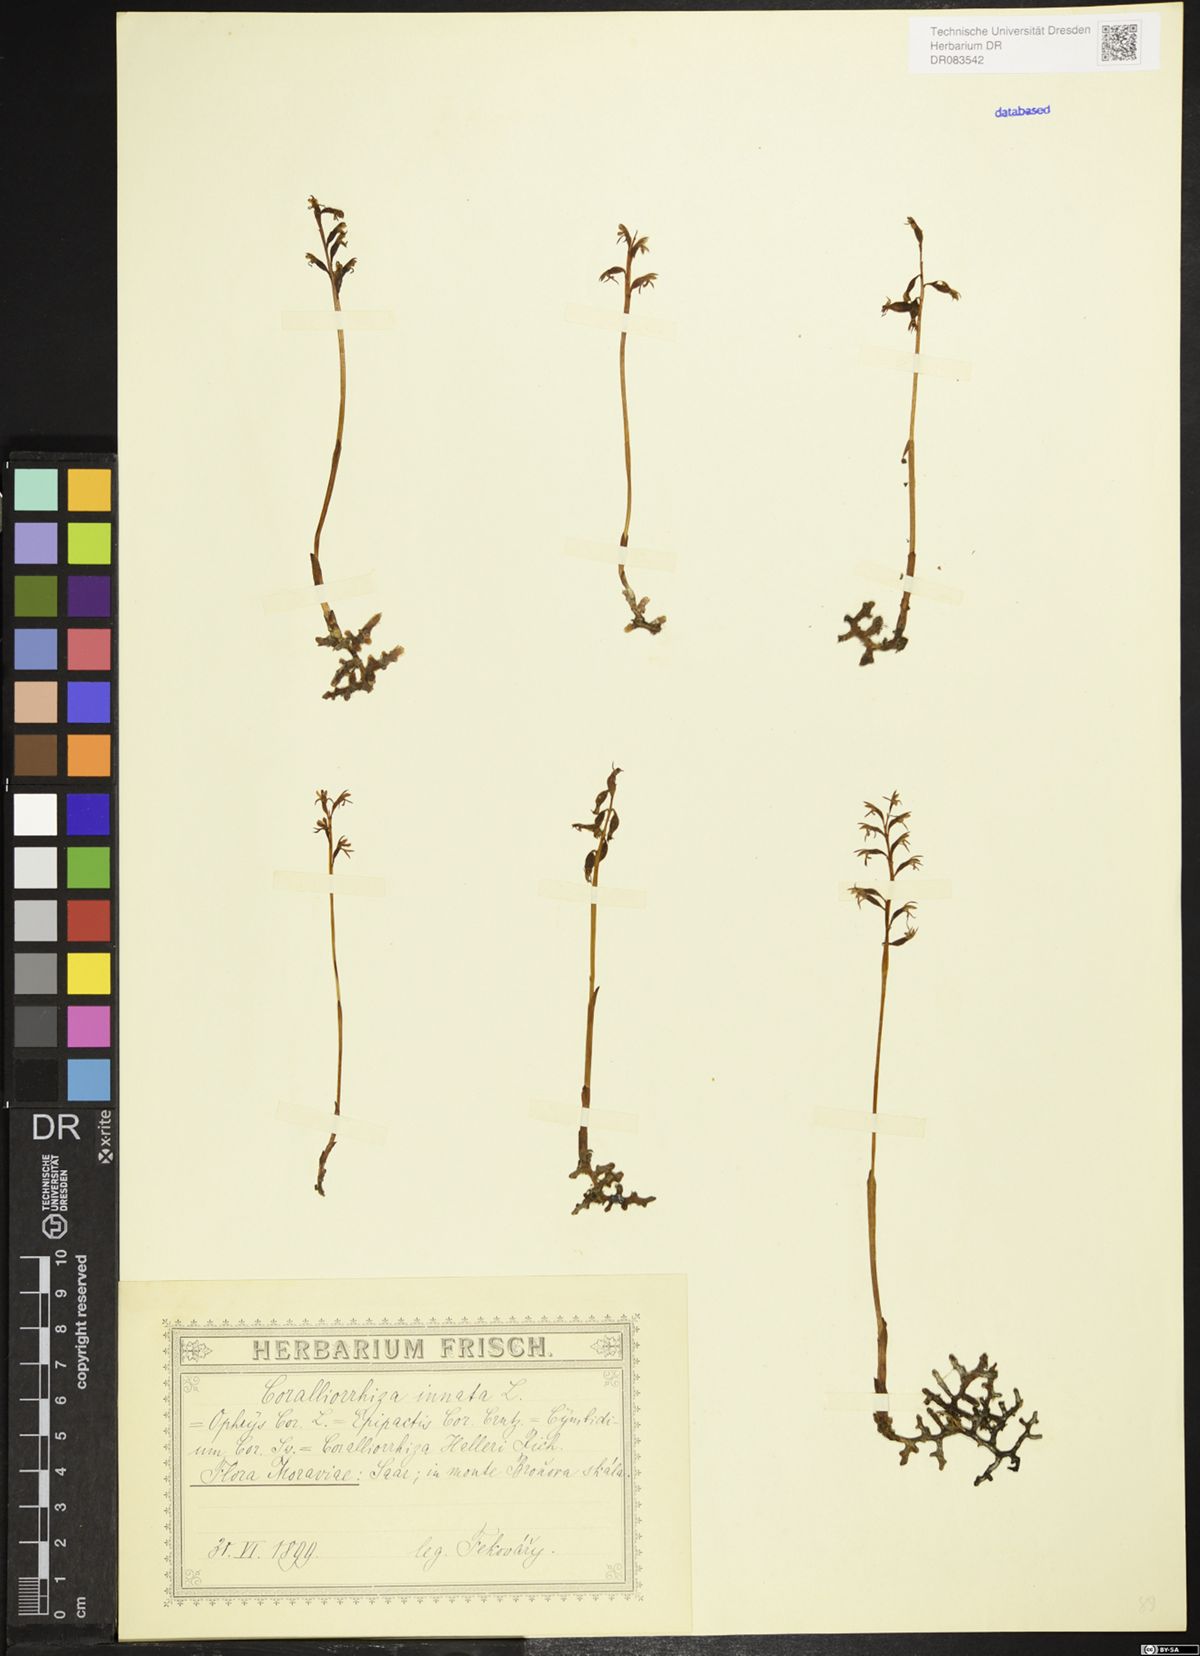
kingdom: Plantae
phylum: Tracheophyta
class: Liliopsida
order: Asparagales
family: Orchidaceae
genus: Corallorhiza
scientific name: Corallorhiza trifida
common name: Yellow coralroot
